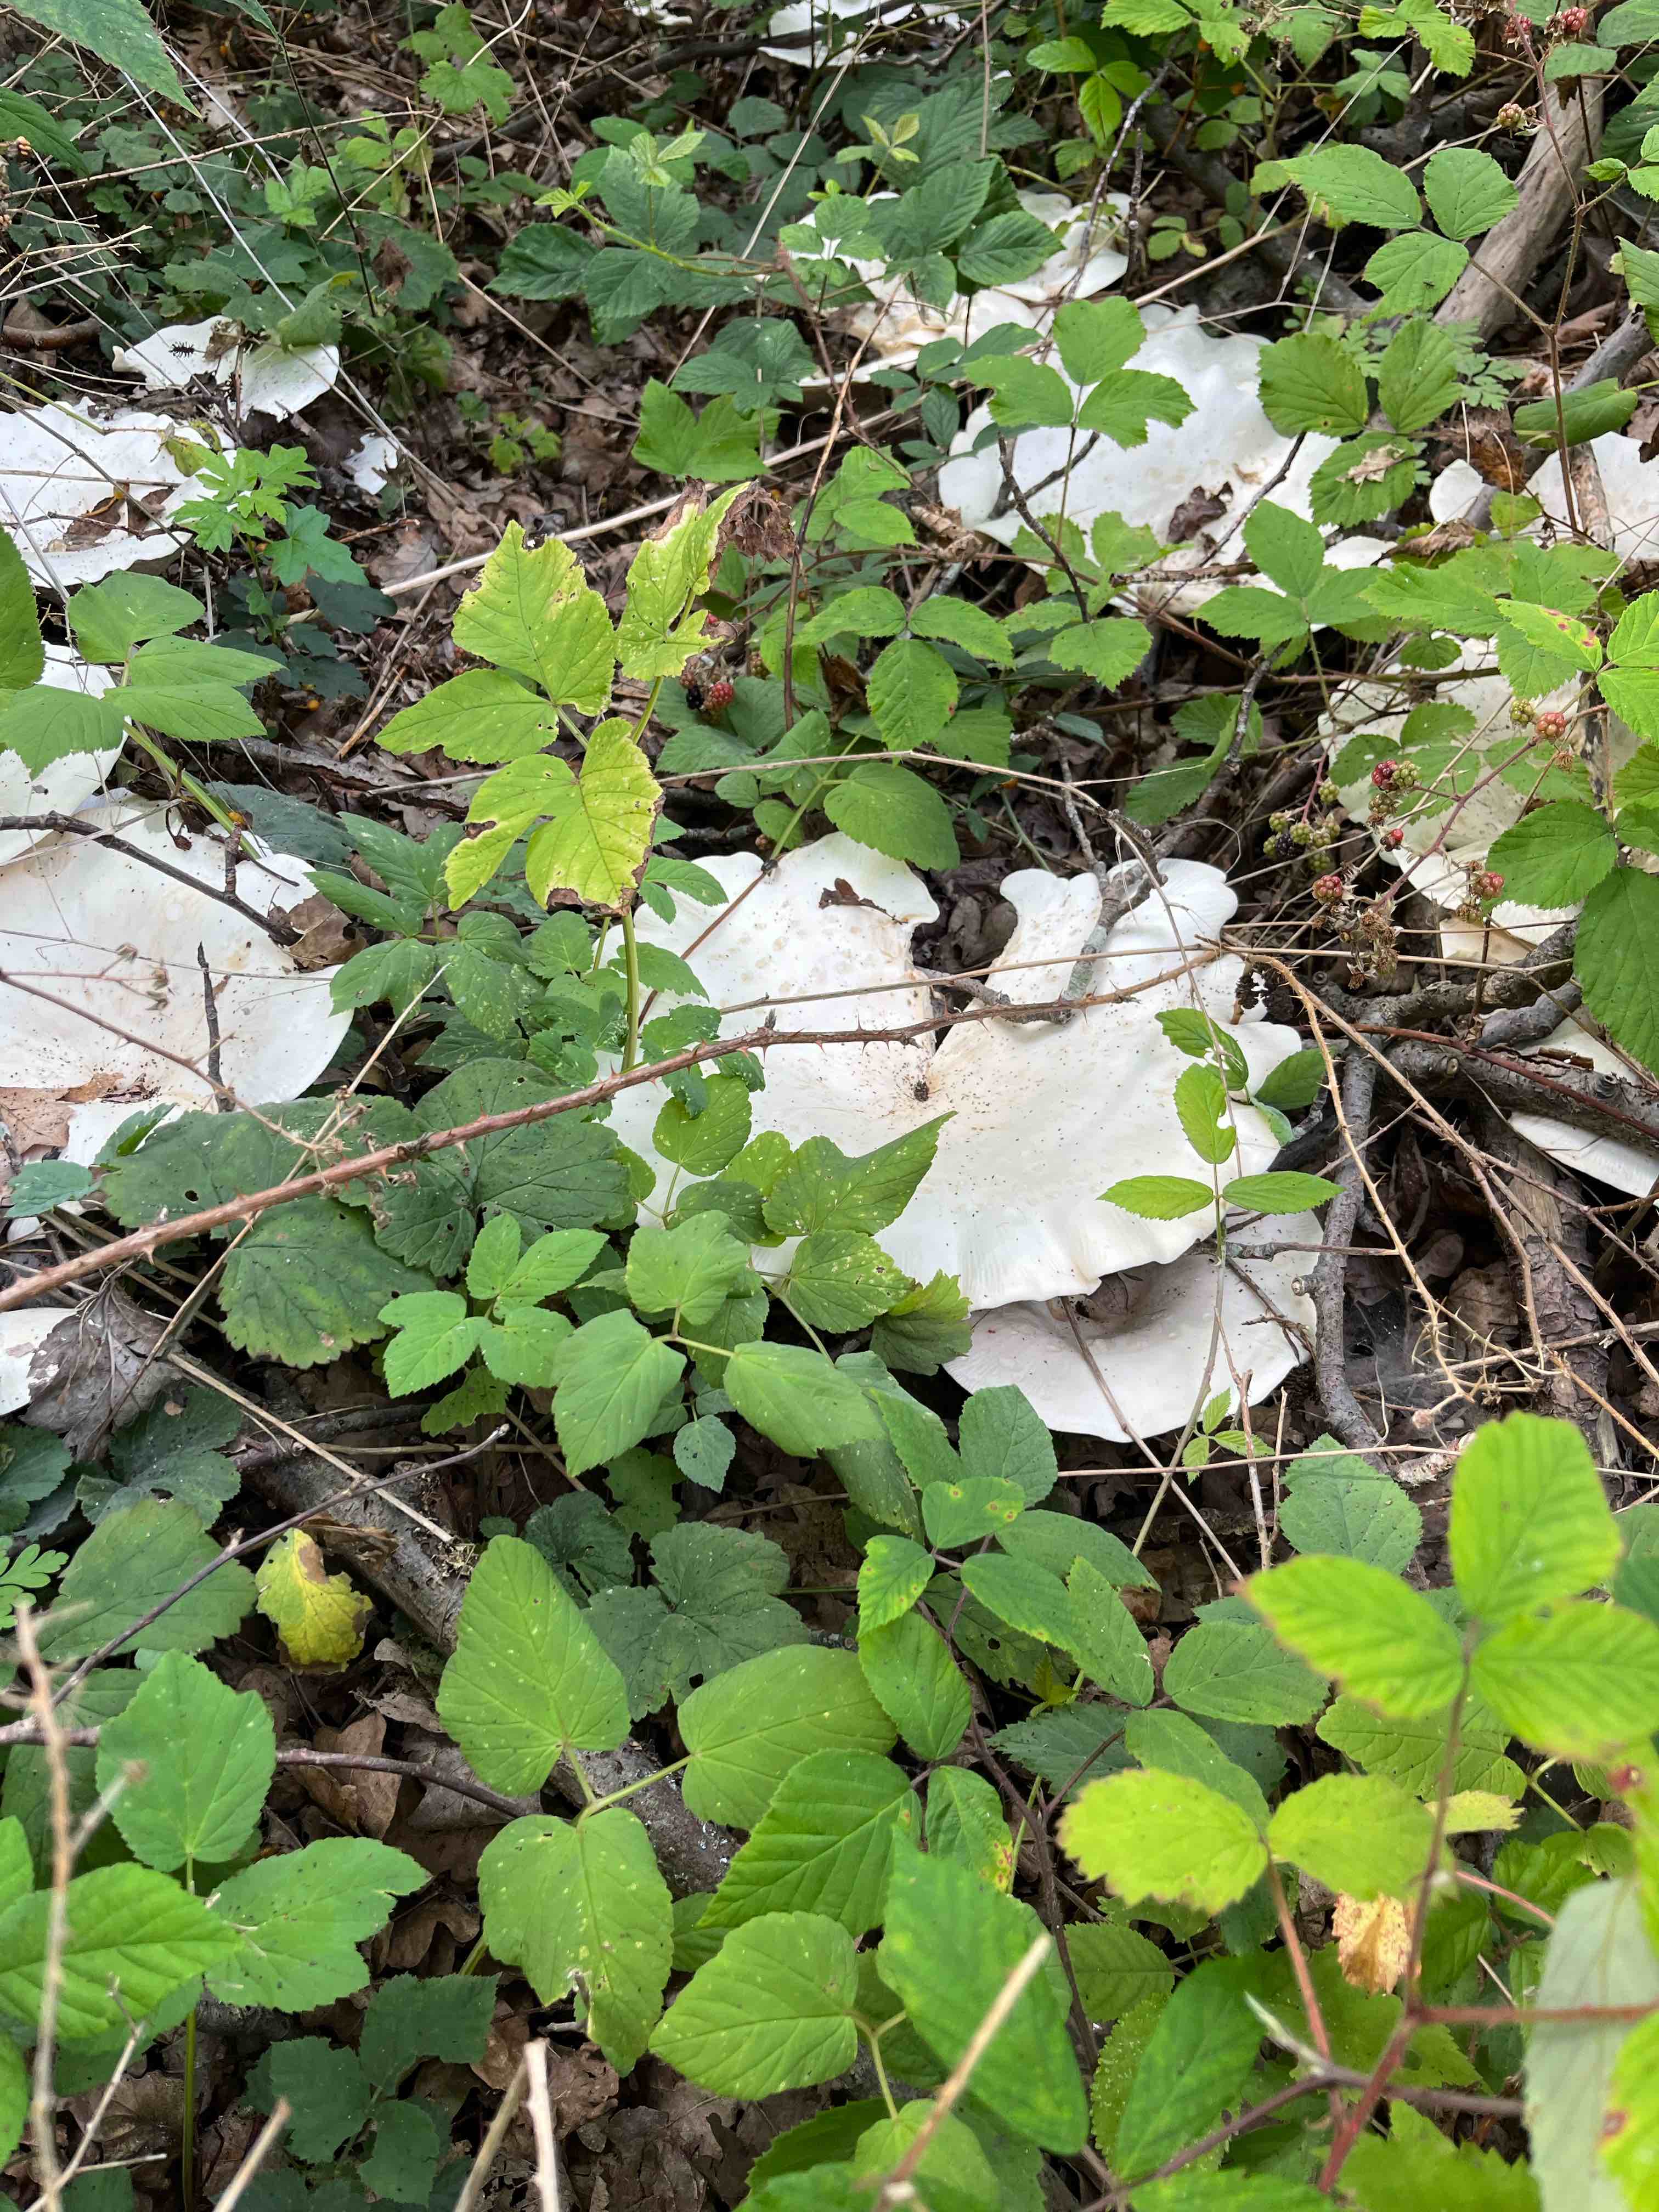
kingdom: Fungi
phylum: Basidiomycota
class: Agaricomycetes
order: Agaricales
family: Tricholomataceae
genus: Aspropaxillus
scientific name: Aspropaxillus giganteus
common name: kæmpe-tragtridderhat
